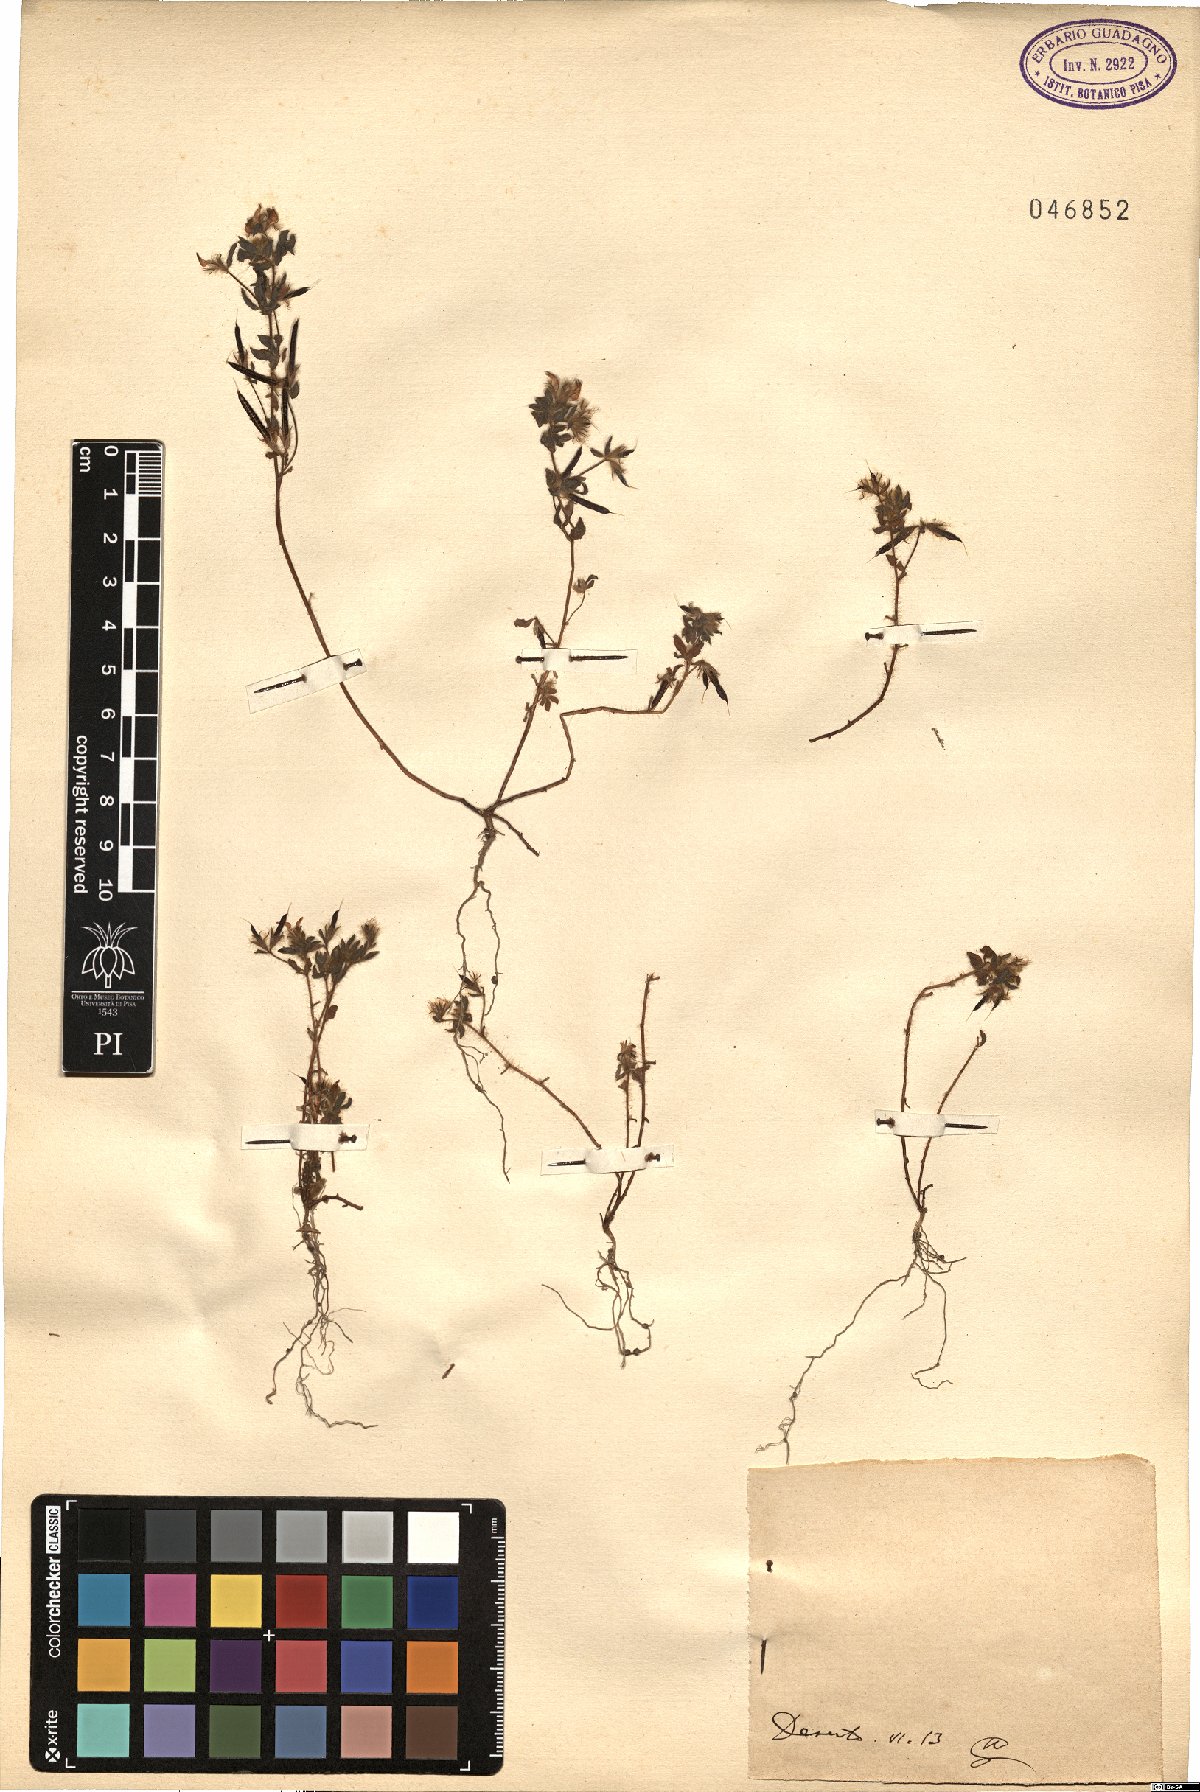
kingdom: Plantae
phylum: Tracheophyta
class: Magnoliopsida
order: Fabales
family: Fabaceae
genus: Lotus
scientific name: Lotus
